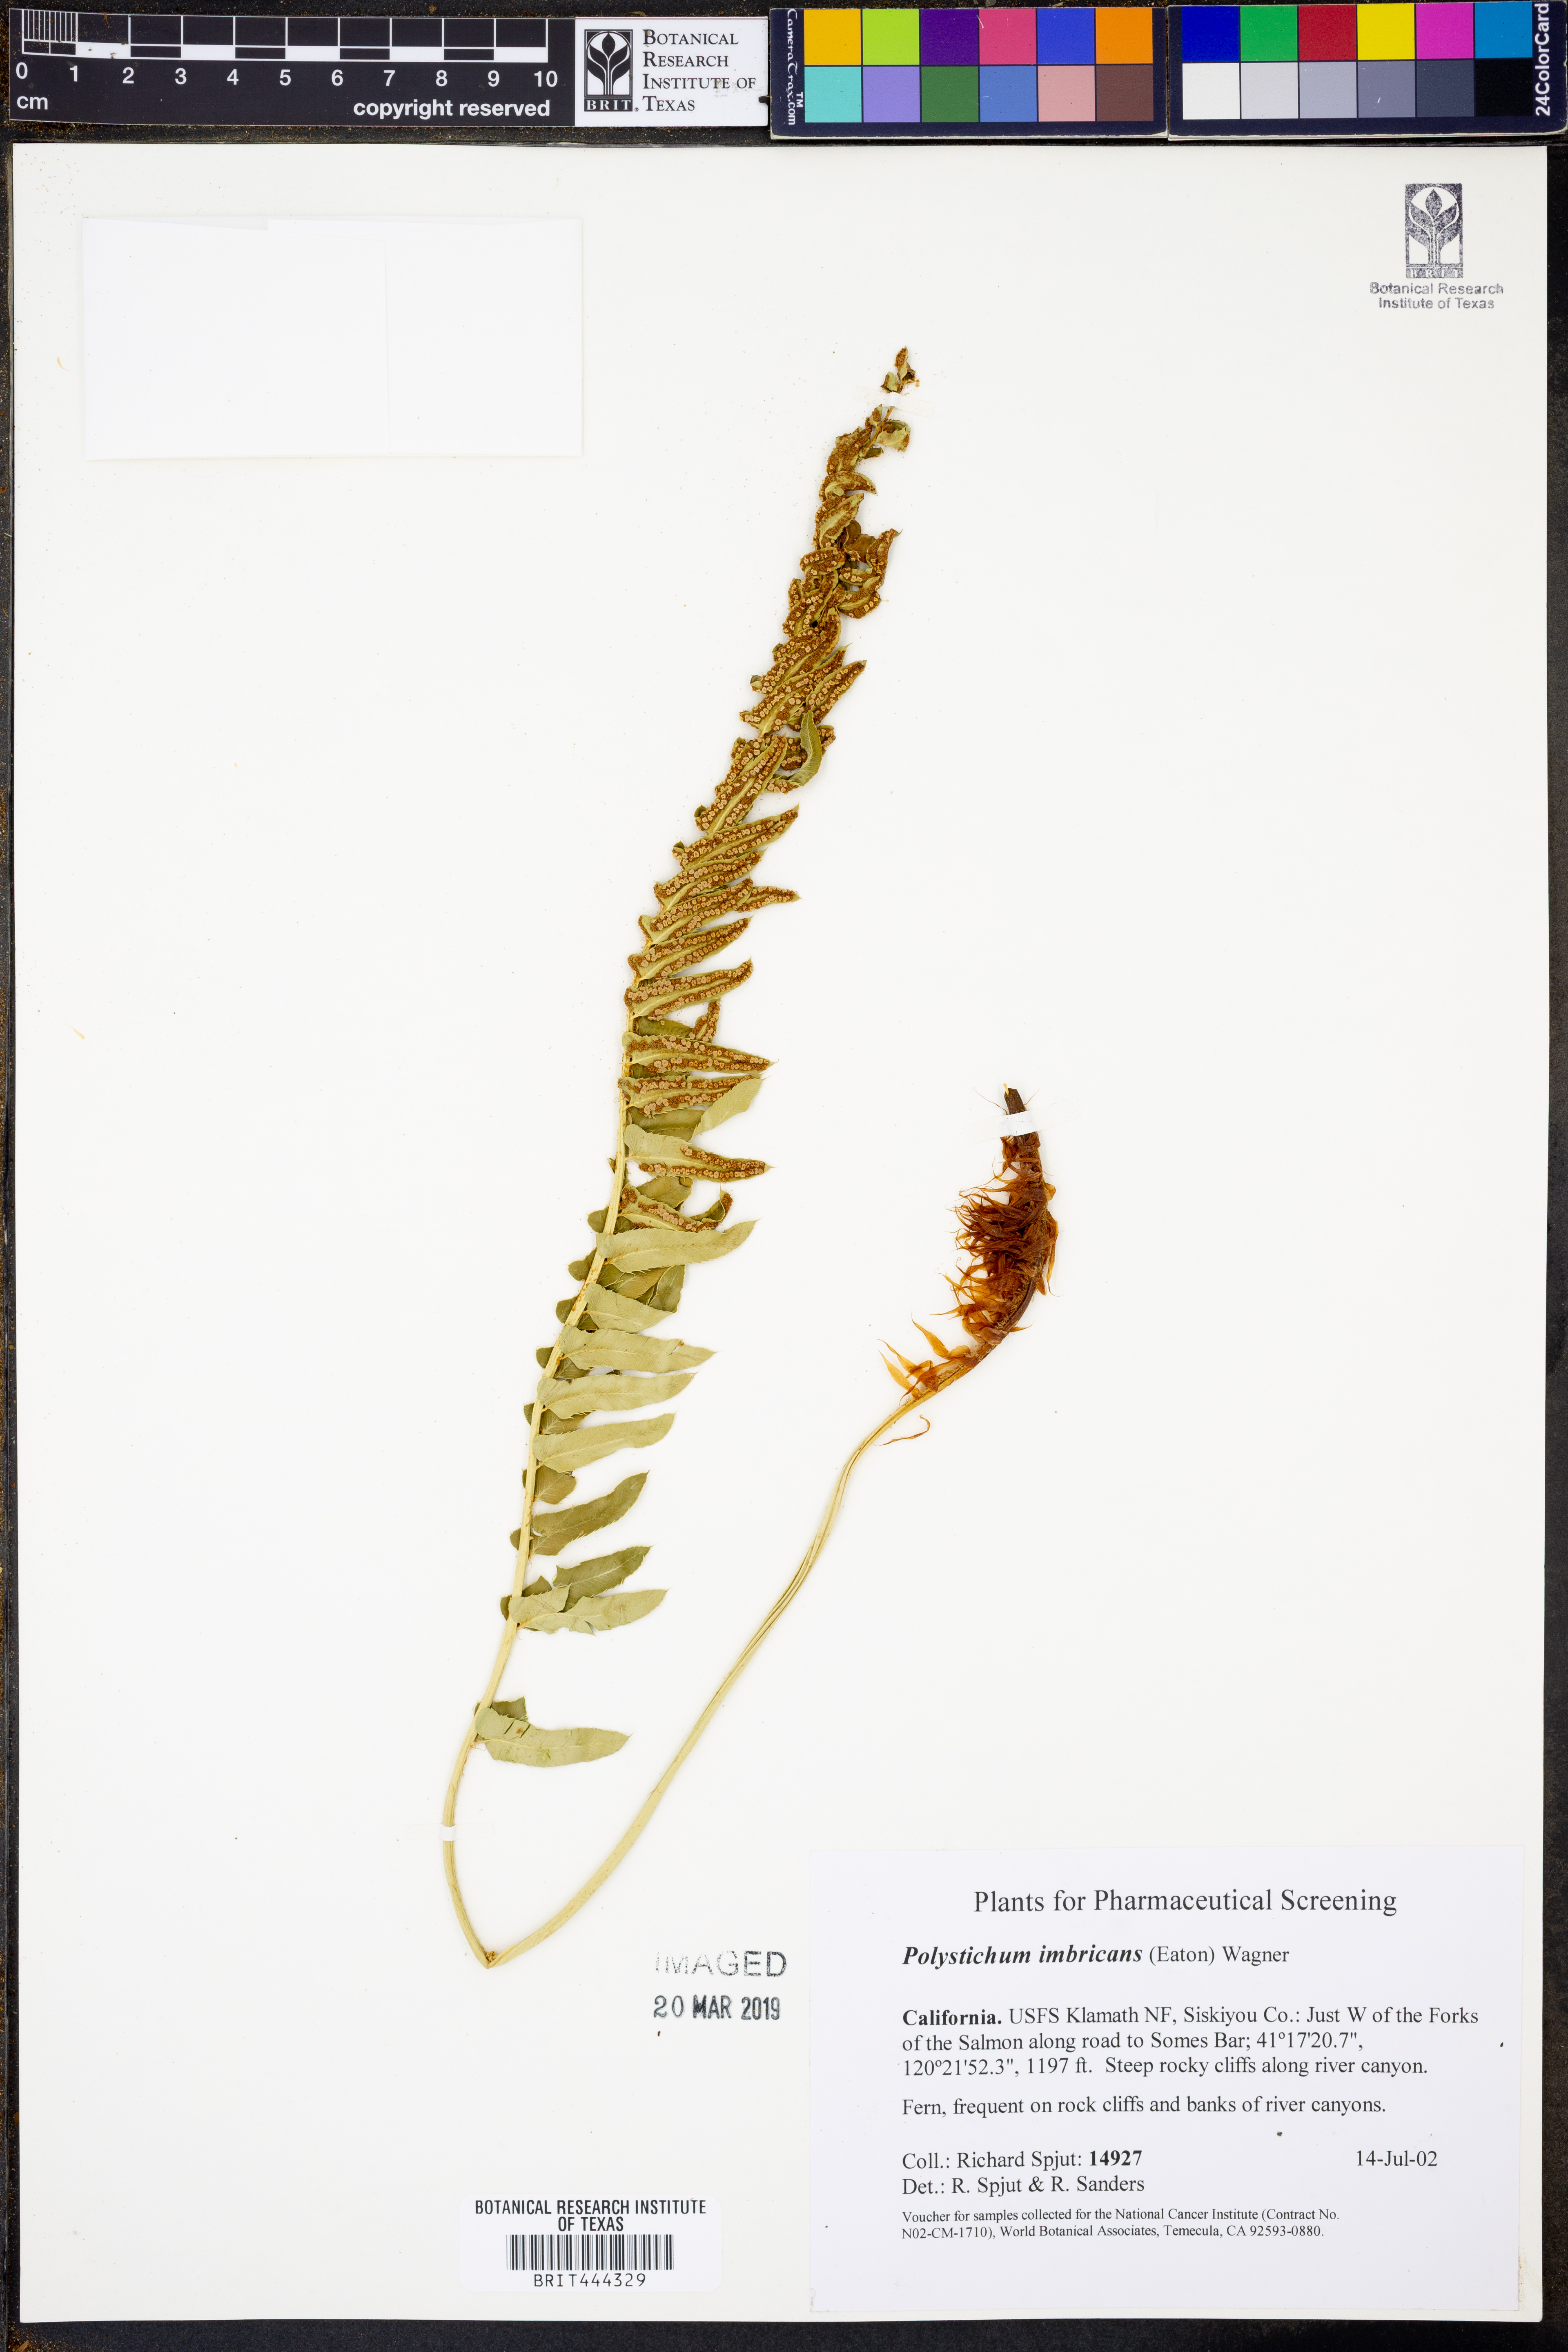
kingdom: Plantae
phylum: Tracheophyta
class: Polypodiopsida
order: Polypodiales
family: Dryopteridaceae
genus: Polystichum
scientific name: Polystichum imbricans
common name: Dwarf western sword fern
